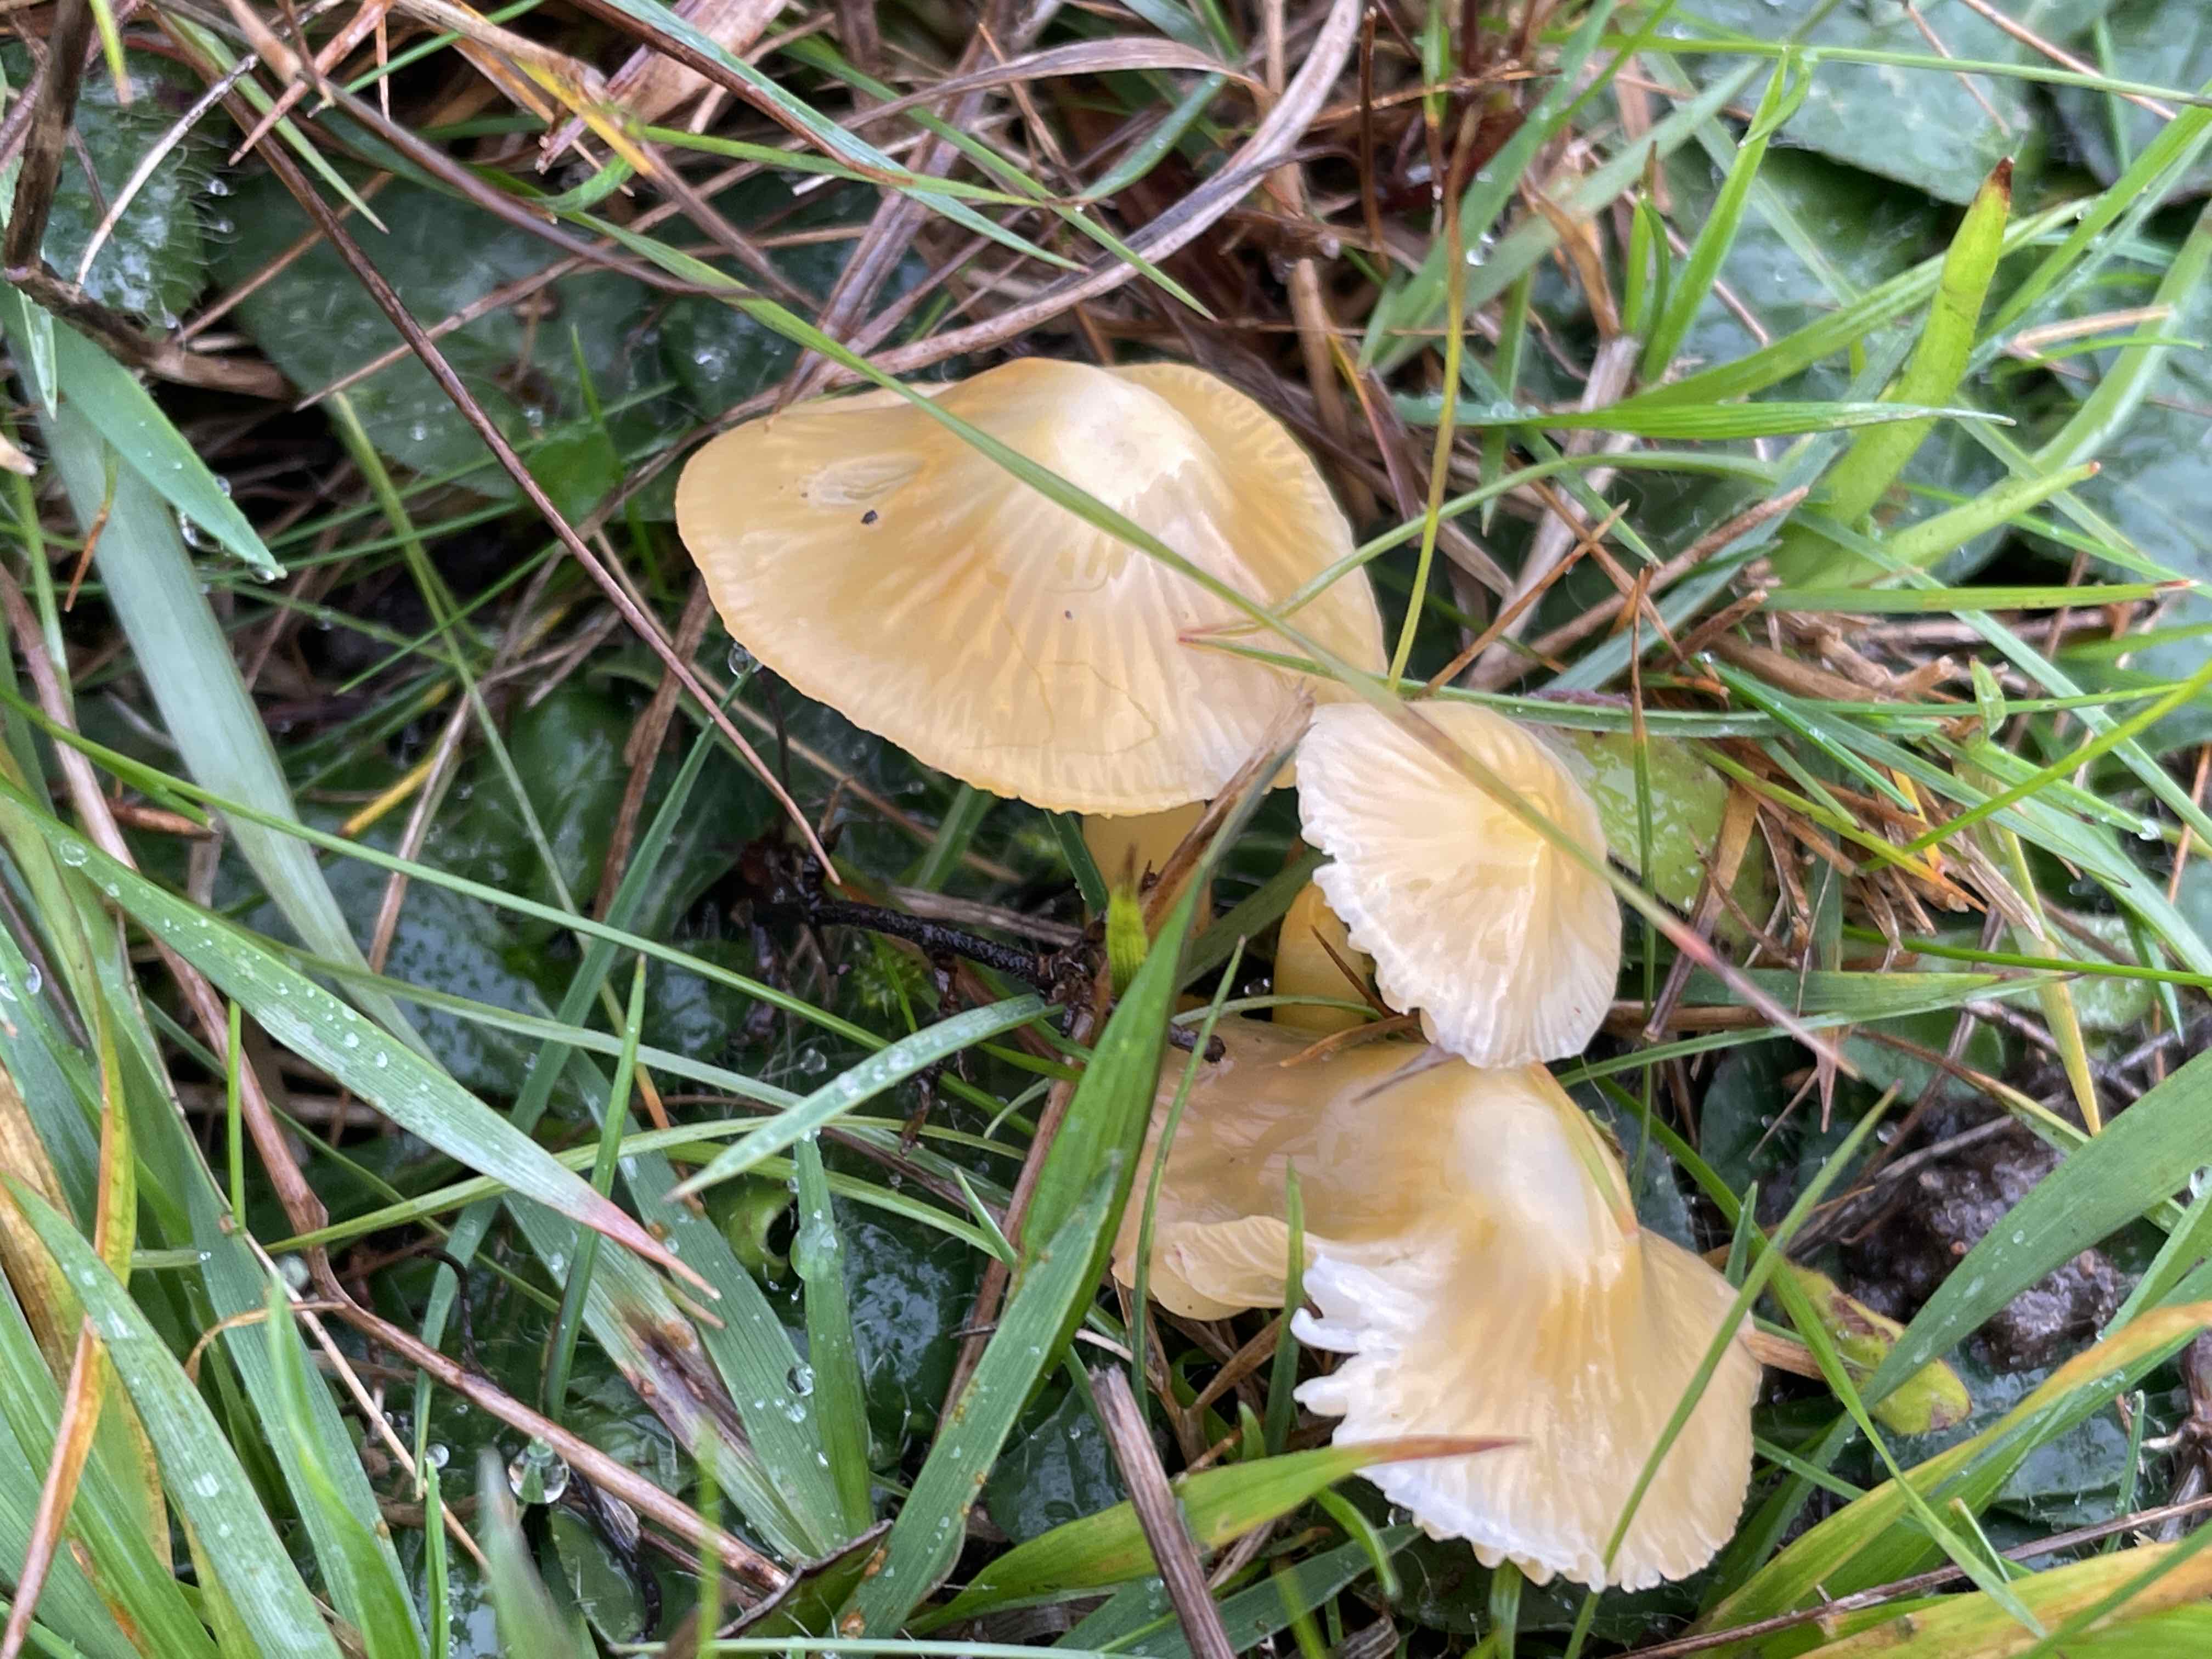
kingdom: Fungi
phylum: Basidiomycota
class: Agaricomycetes
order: Agaricales
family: Hygrophoraceae
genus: Gliophorus
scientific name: Gliophorus psittacinus
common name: papegøje-vokshat
